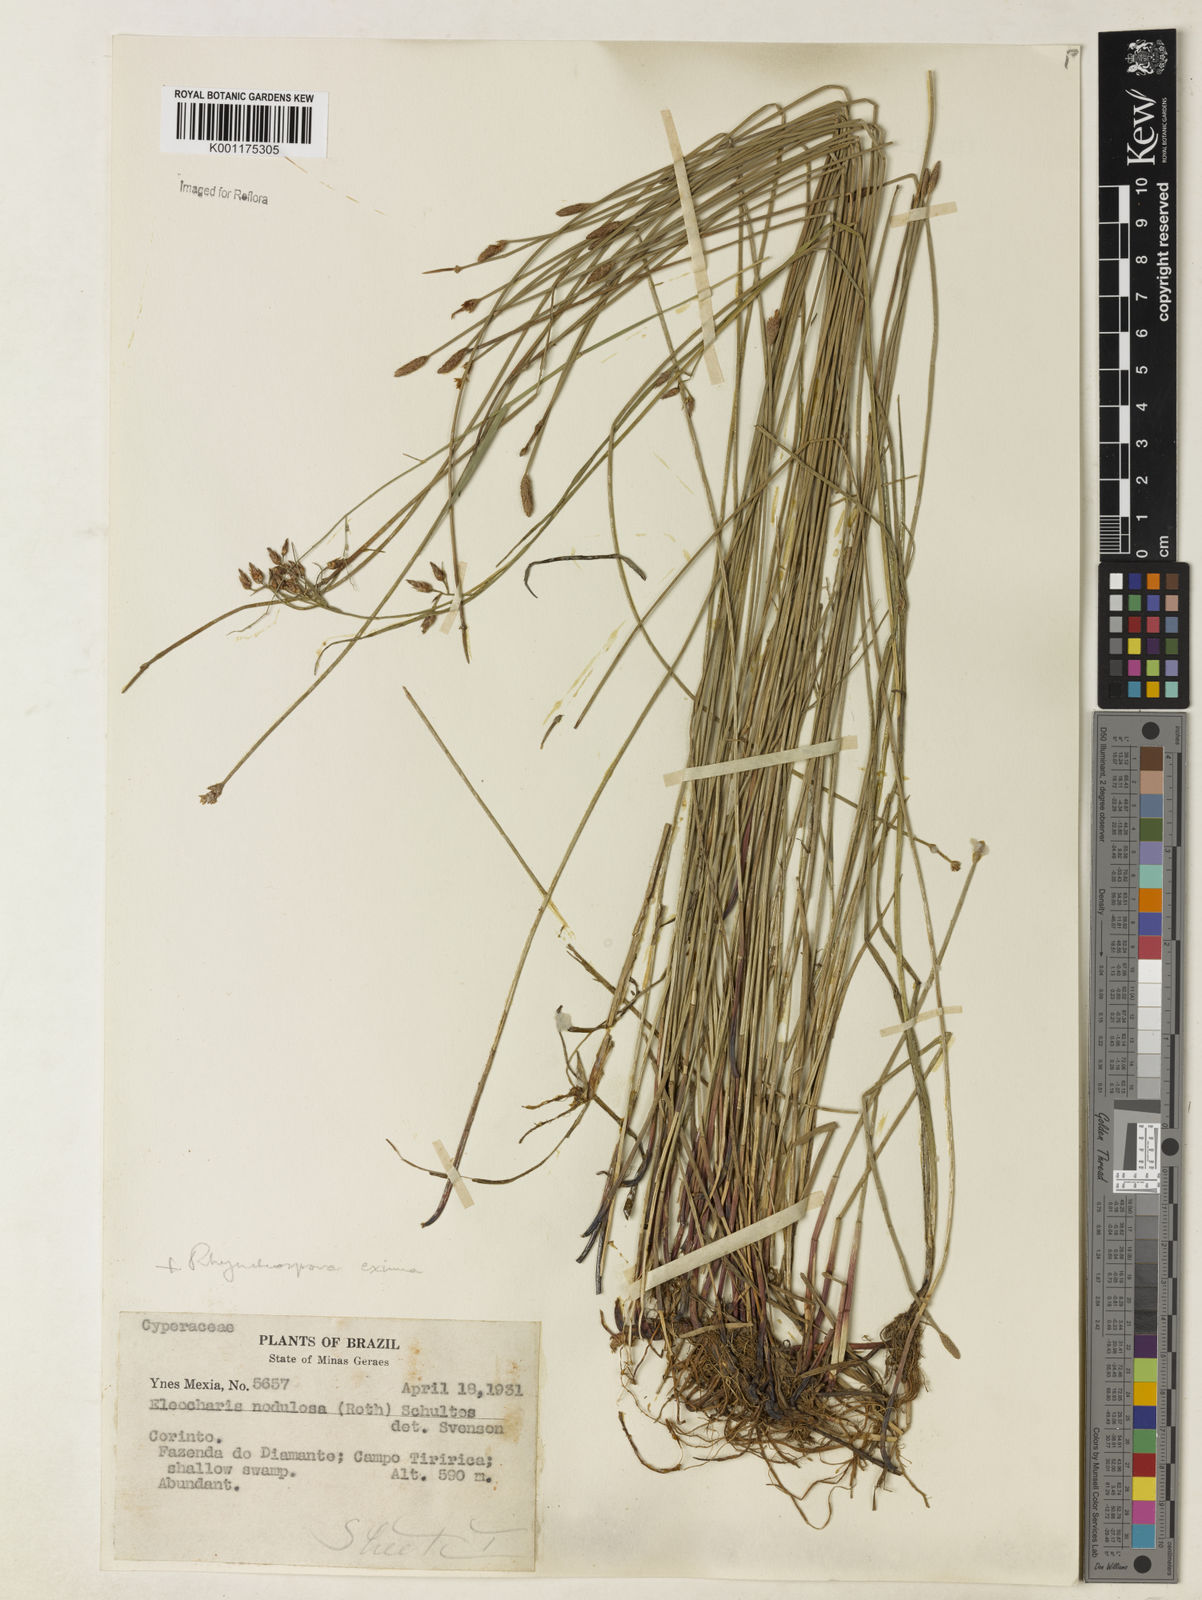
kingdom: Plantae
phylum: Tracheophyta
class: Liliopsida
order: Poales
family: Cyperaceae
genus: Eleocharis
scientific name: Eleocharis montana
